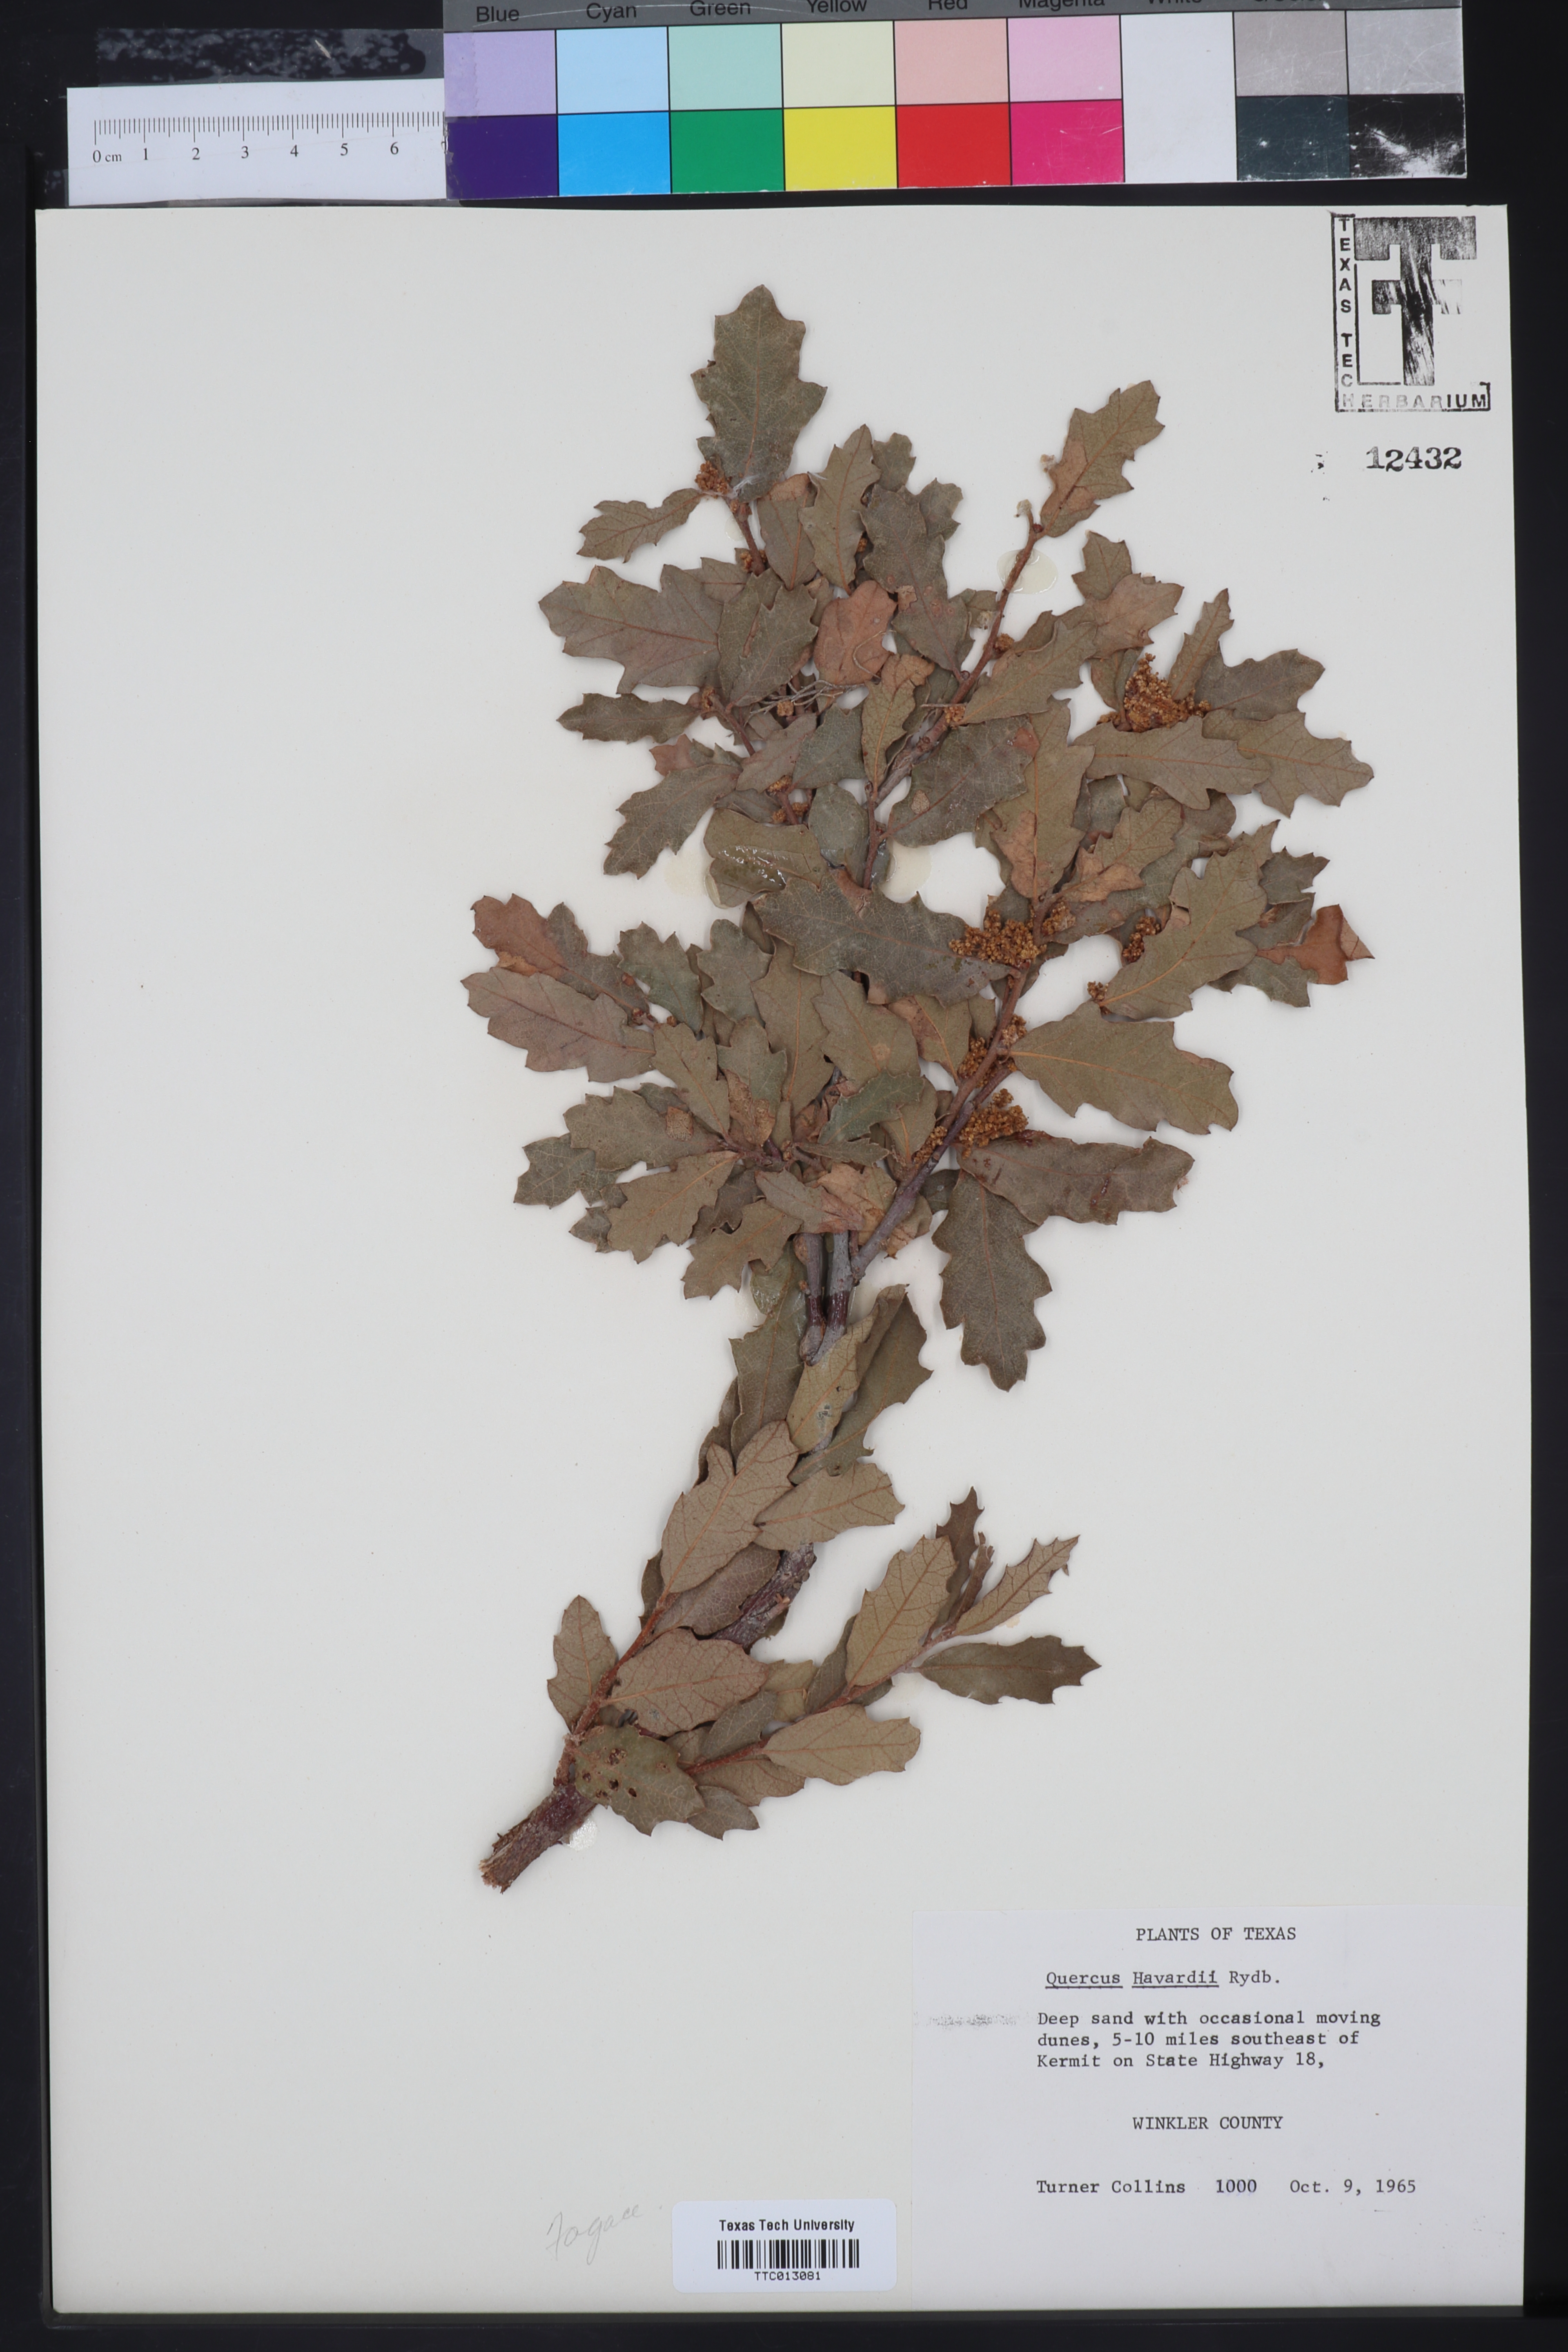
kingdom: Plantae
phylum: Tracheophyta
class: Magnoliopsida
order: Fagales
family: Fagaceae
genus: Quercus
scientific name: Quercus havardii
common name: Shinnery oak
